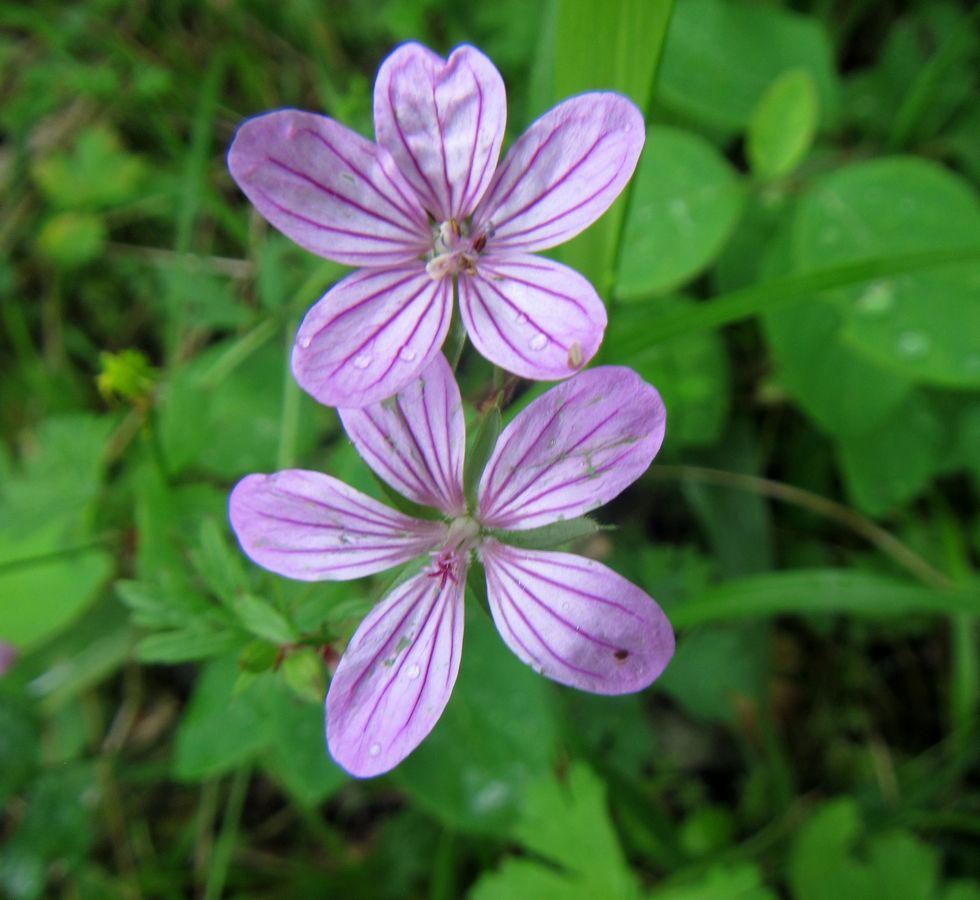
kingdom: Plantae
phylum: Tracheophyta
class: Magnoliopsida
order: Geraniales
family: Geraniaceae
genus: Geranium
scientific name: Geranium collinum
